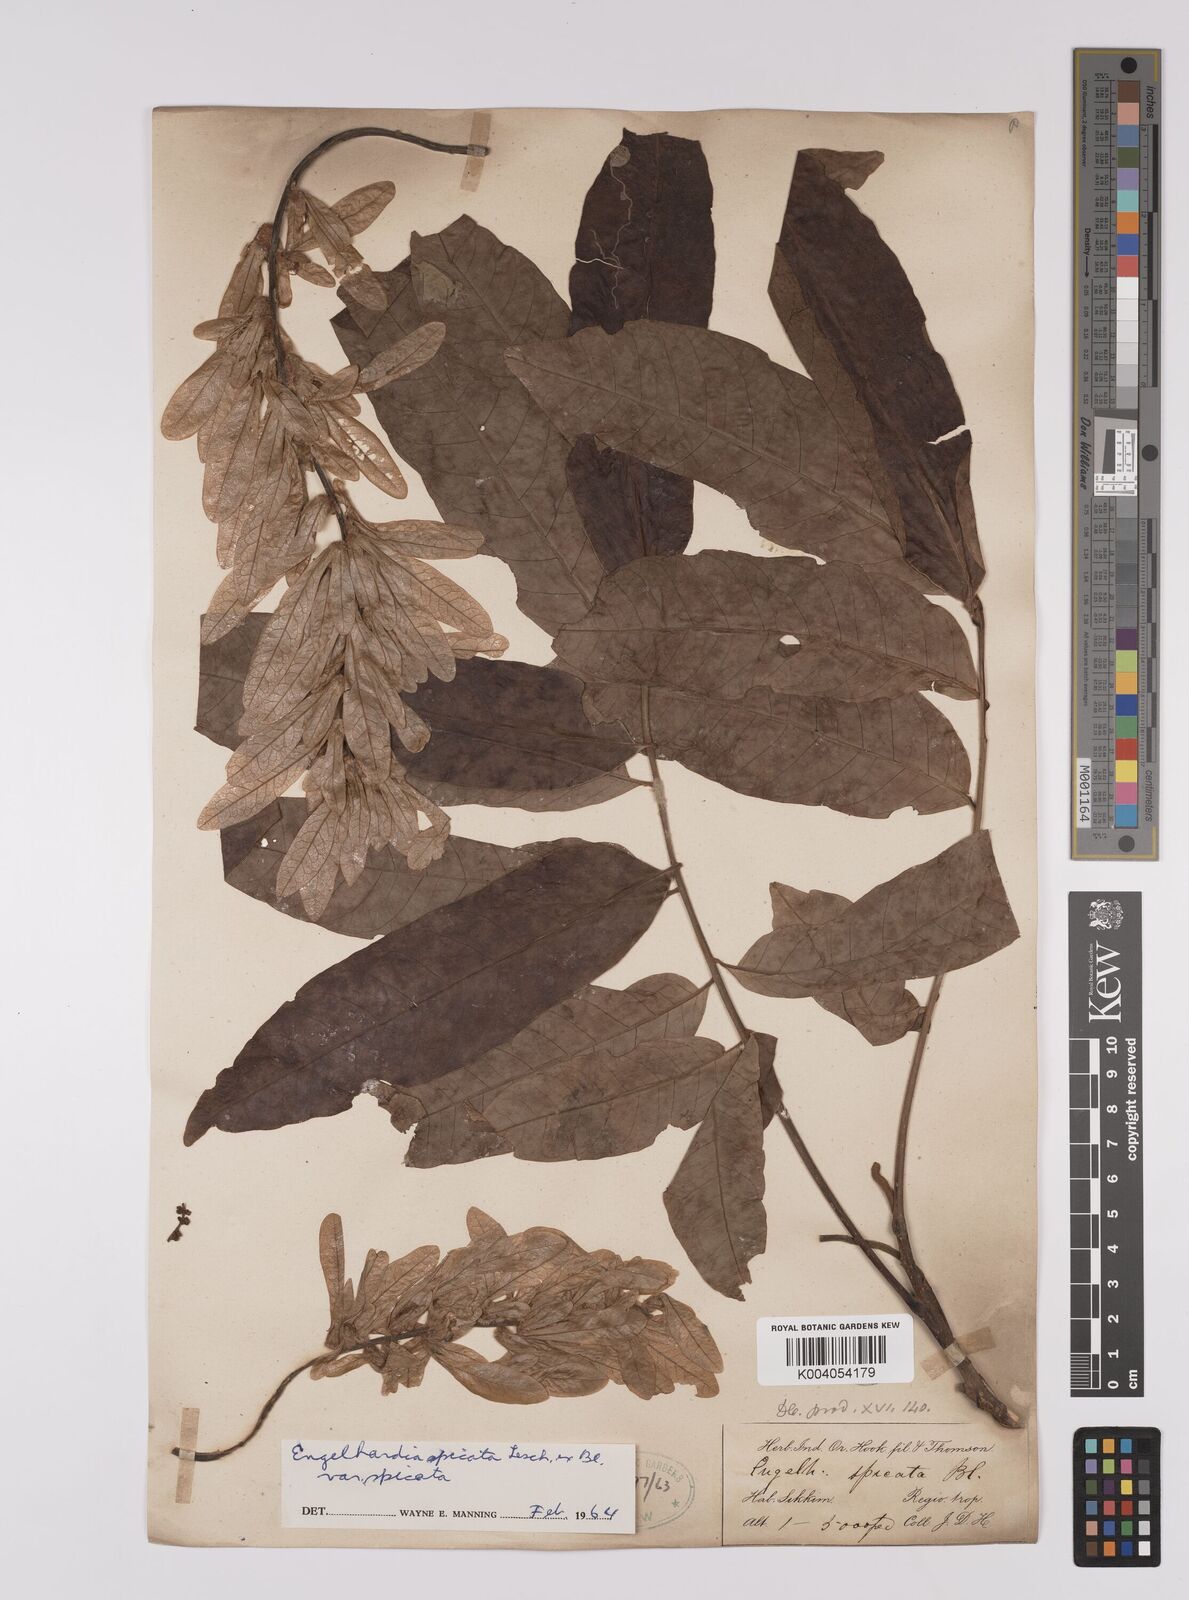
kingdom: Plantae
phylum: Tracheophyta
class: Magnoliopsida
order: Fagales
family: Juglandaceae
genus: Engelhardia
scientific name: Engelhardia spicata
